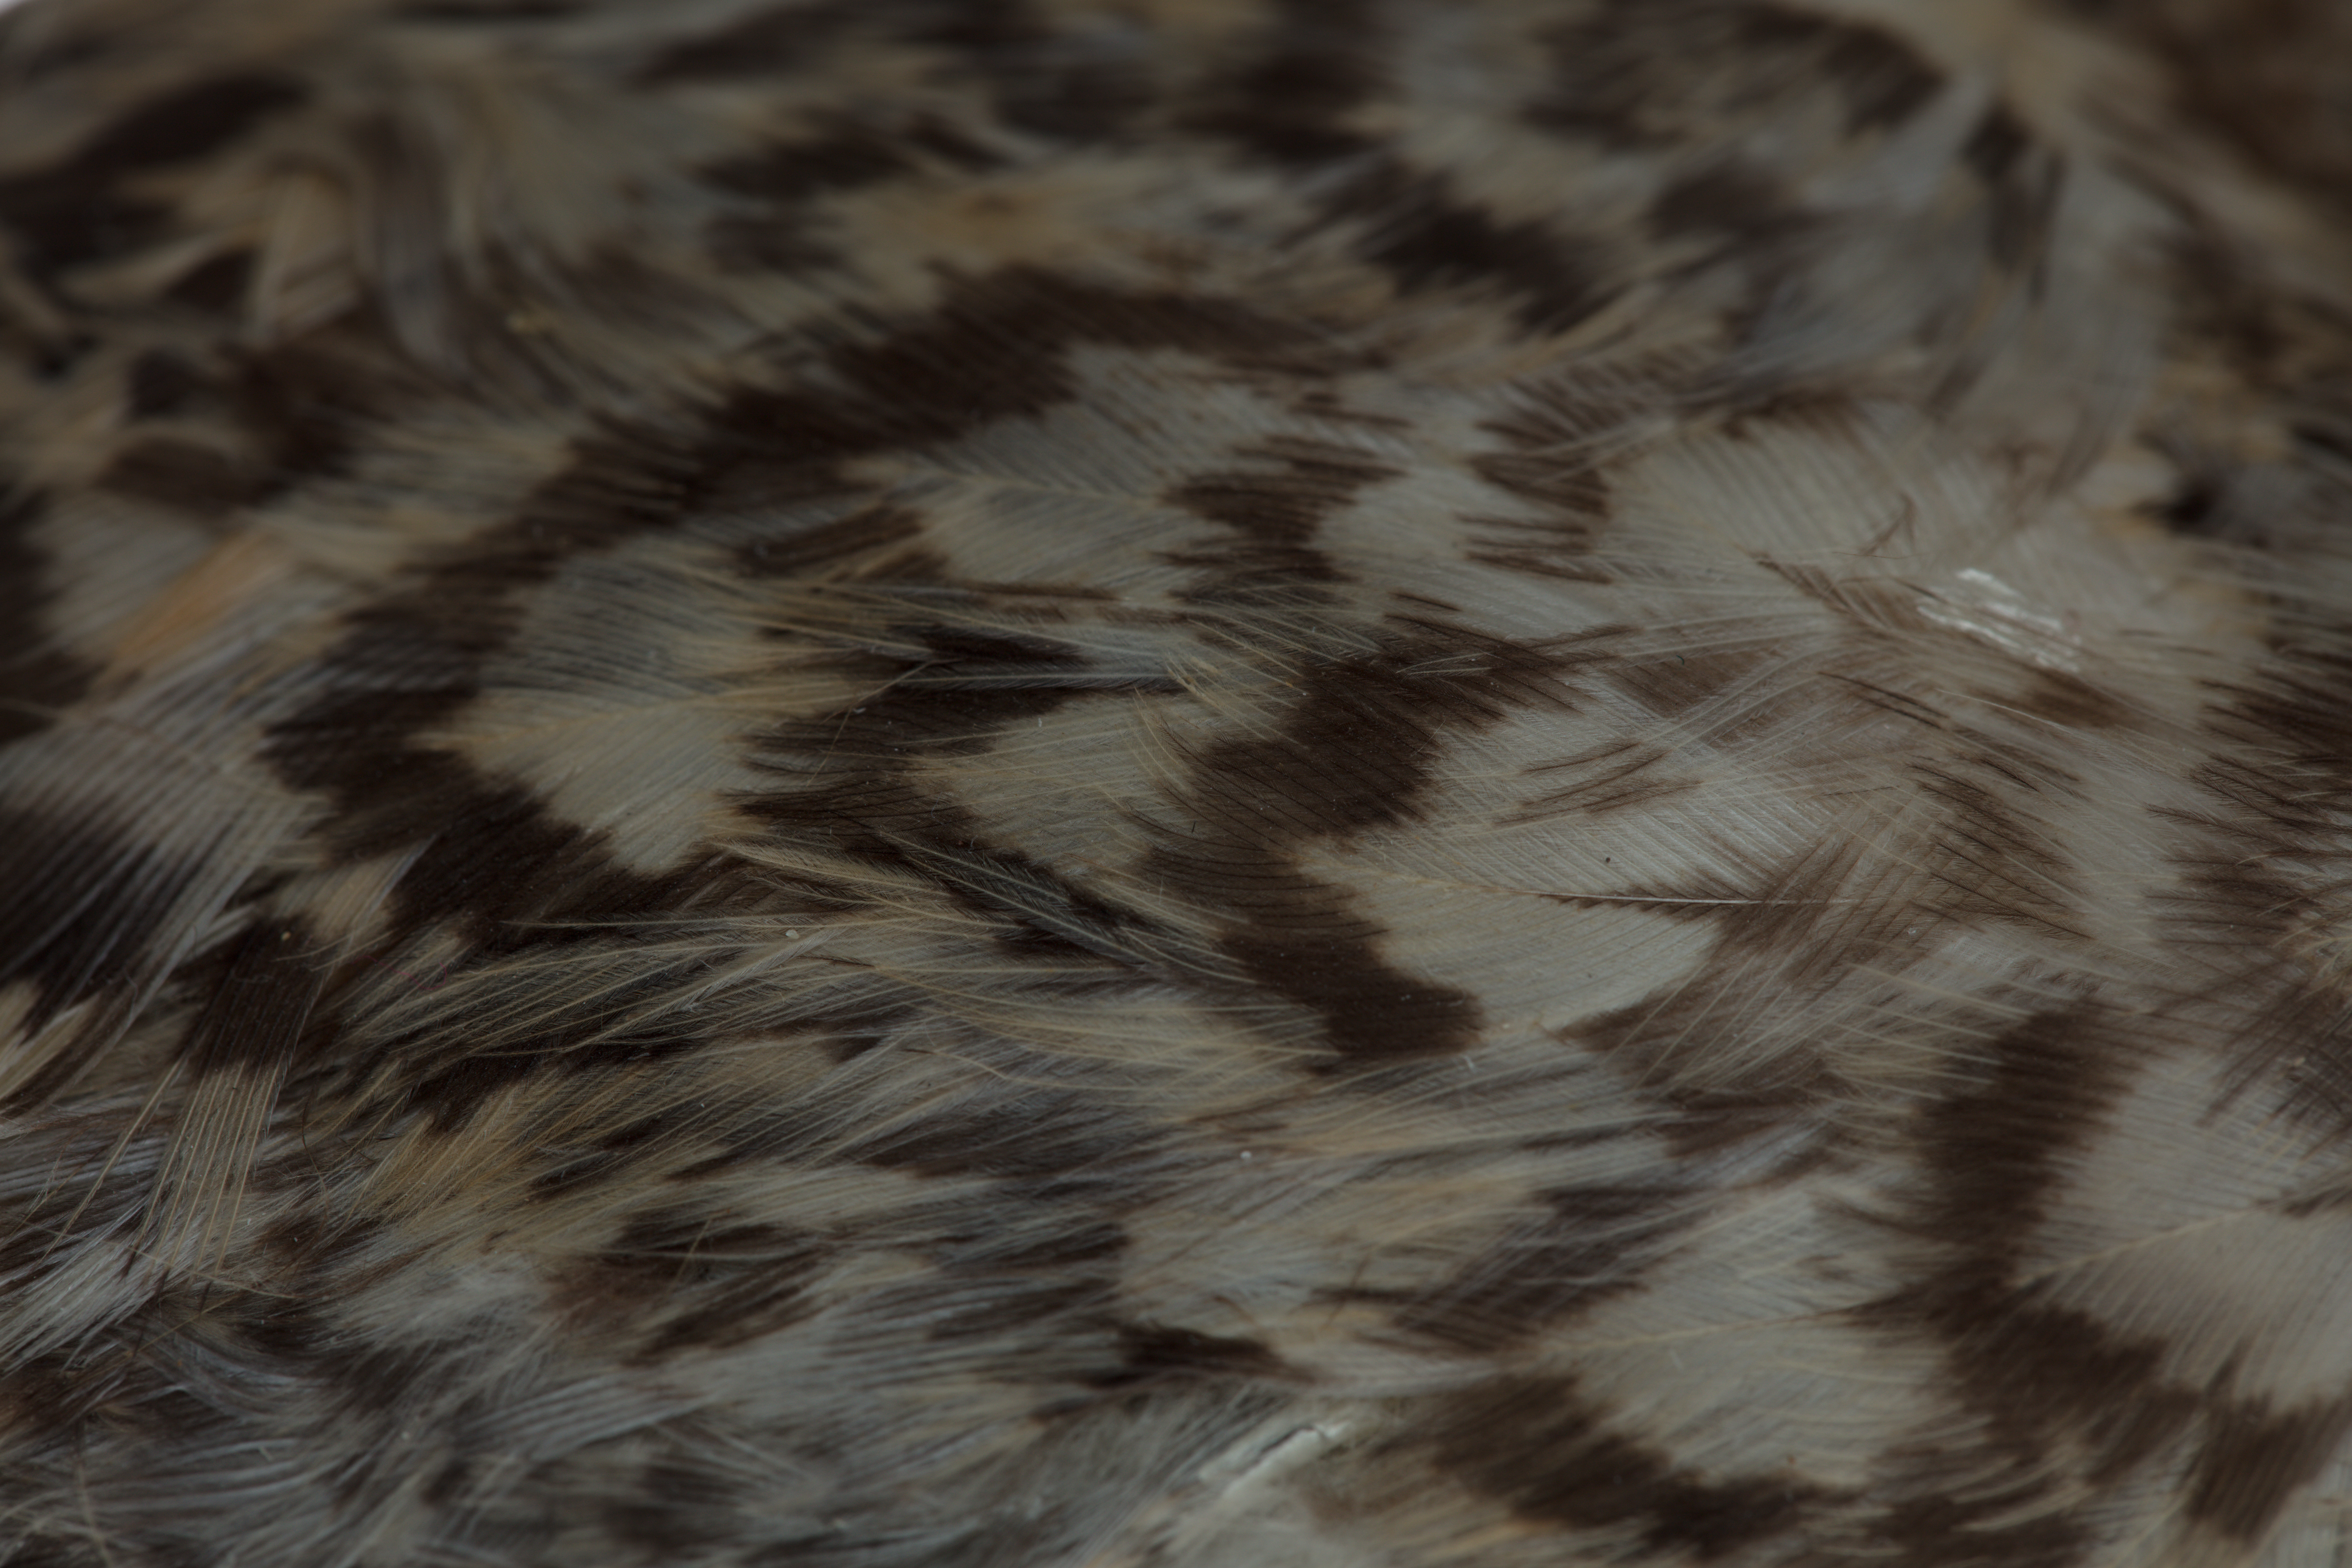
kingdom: Animalia
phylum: Chordata
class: Aves
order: Charadriiformes
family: Laridae
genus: Sterna
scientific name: Sterna striata
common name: White-fronted tern
